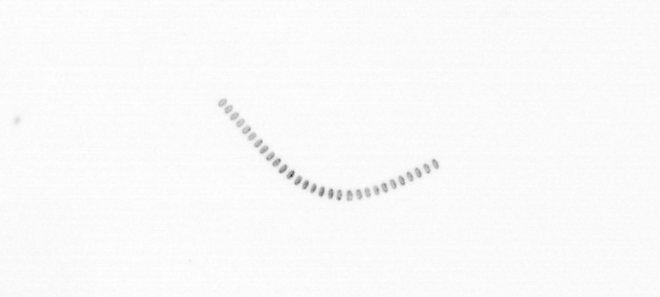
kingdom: Chromista
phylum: Ochrophyta
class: Bacillariophyceae
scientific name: Bacillariophyceae
